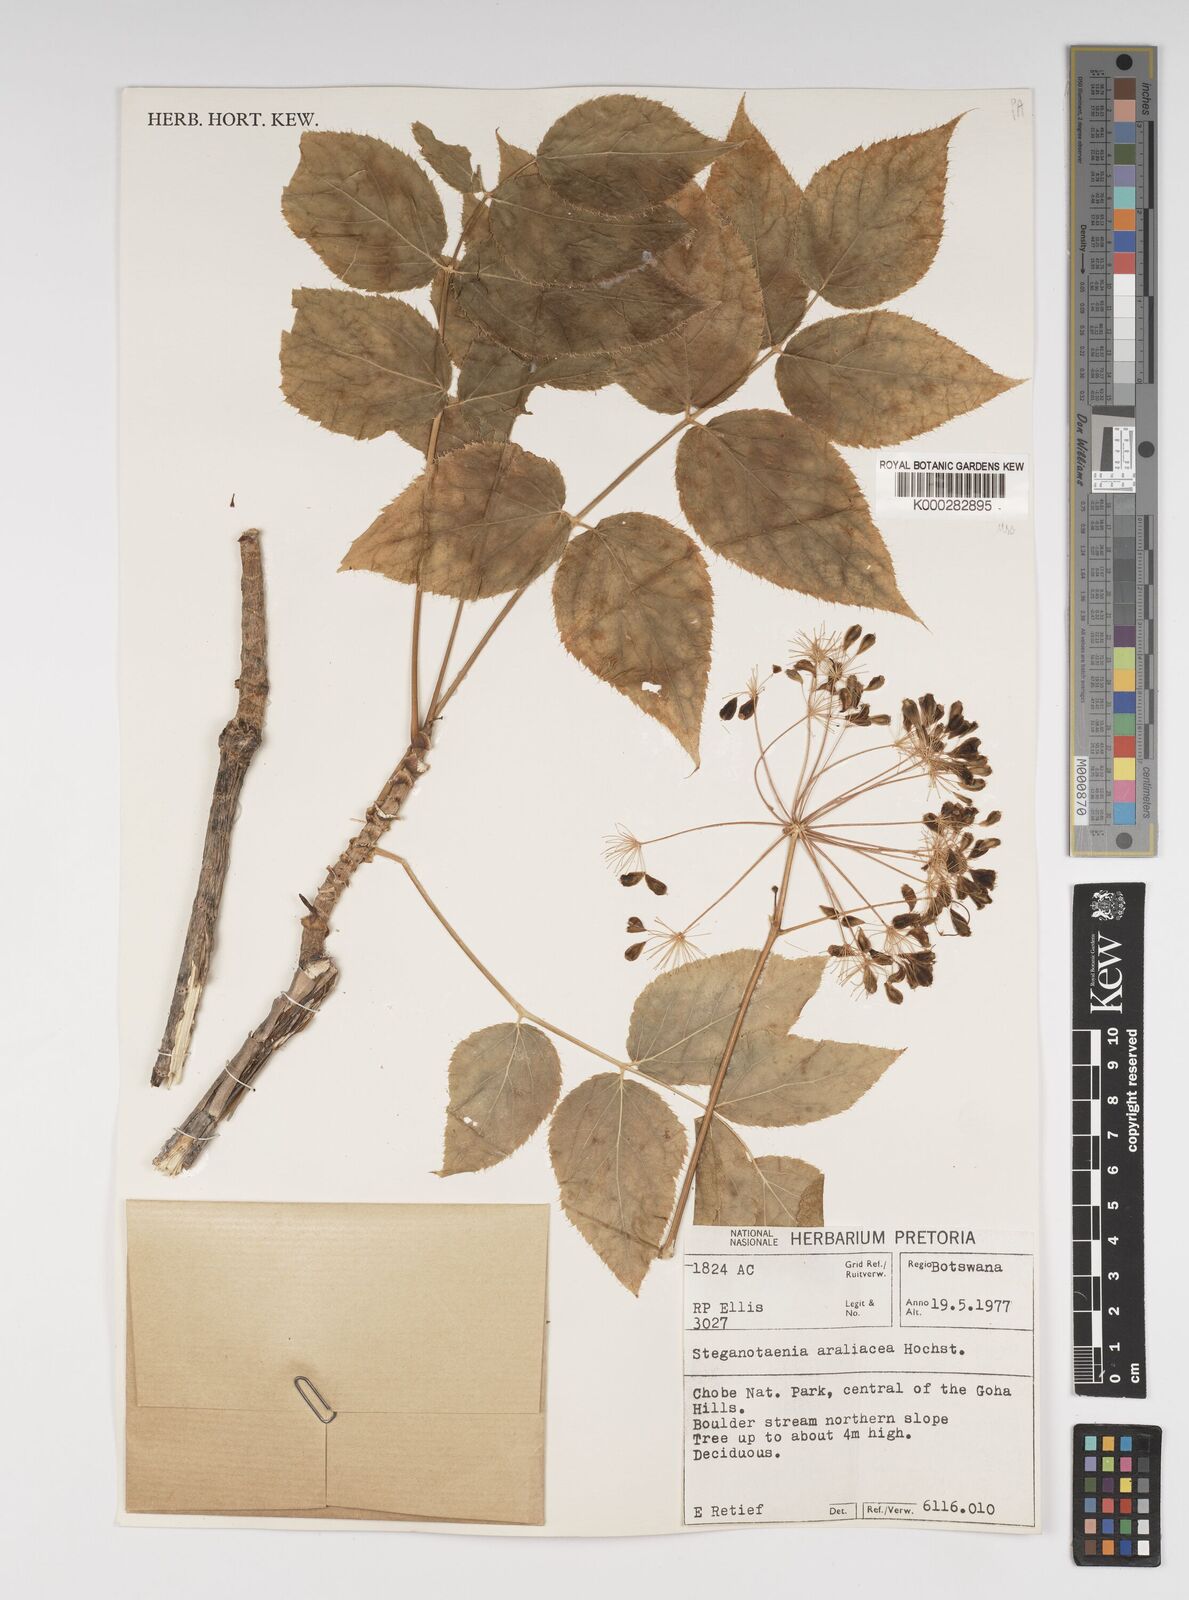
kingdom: Plantae
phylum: Tracheophyta
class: Magnoliopsida
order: Apiales
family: Apiaceae
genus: Steganotaenia
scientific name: Steganotaenia araliacea
